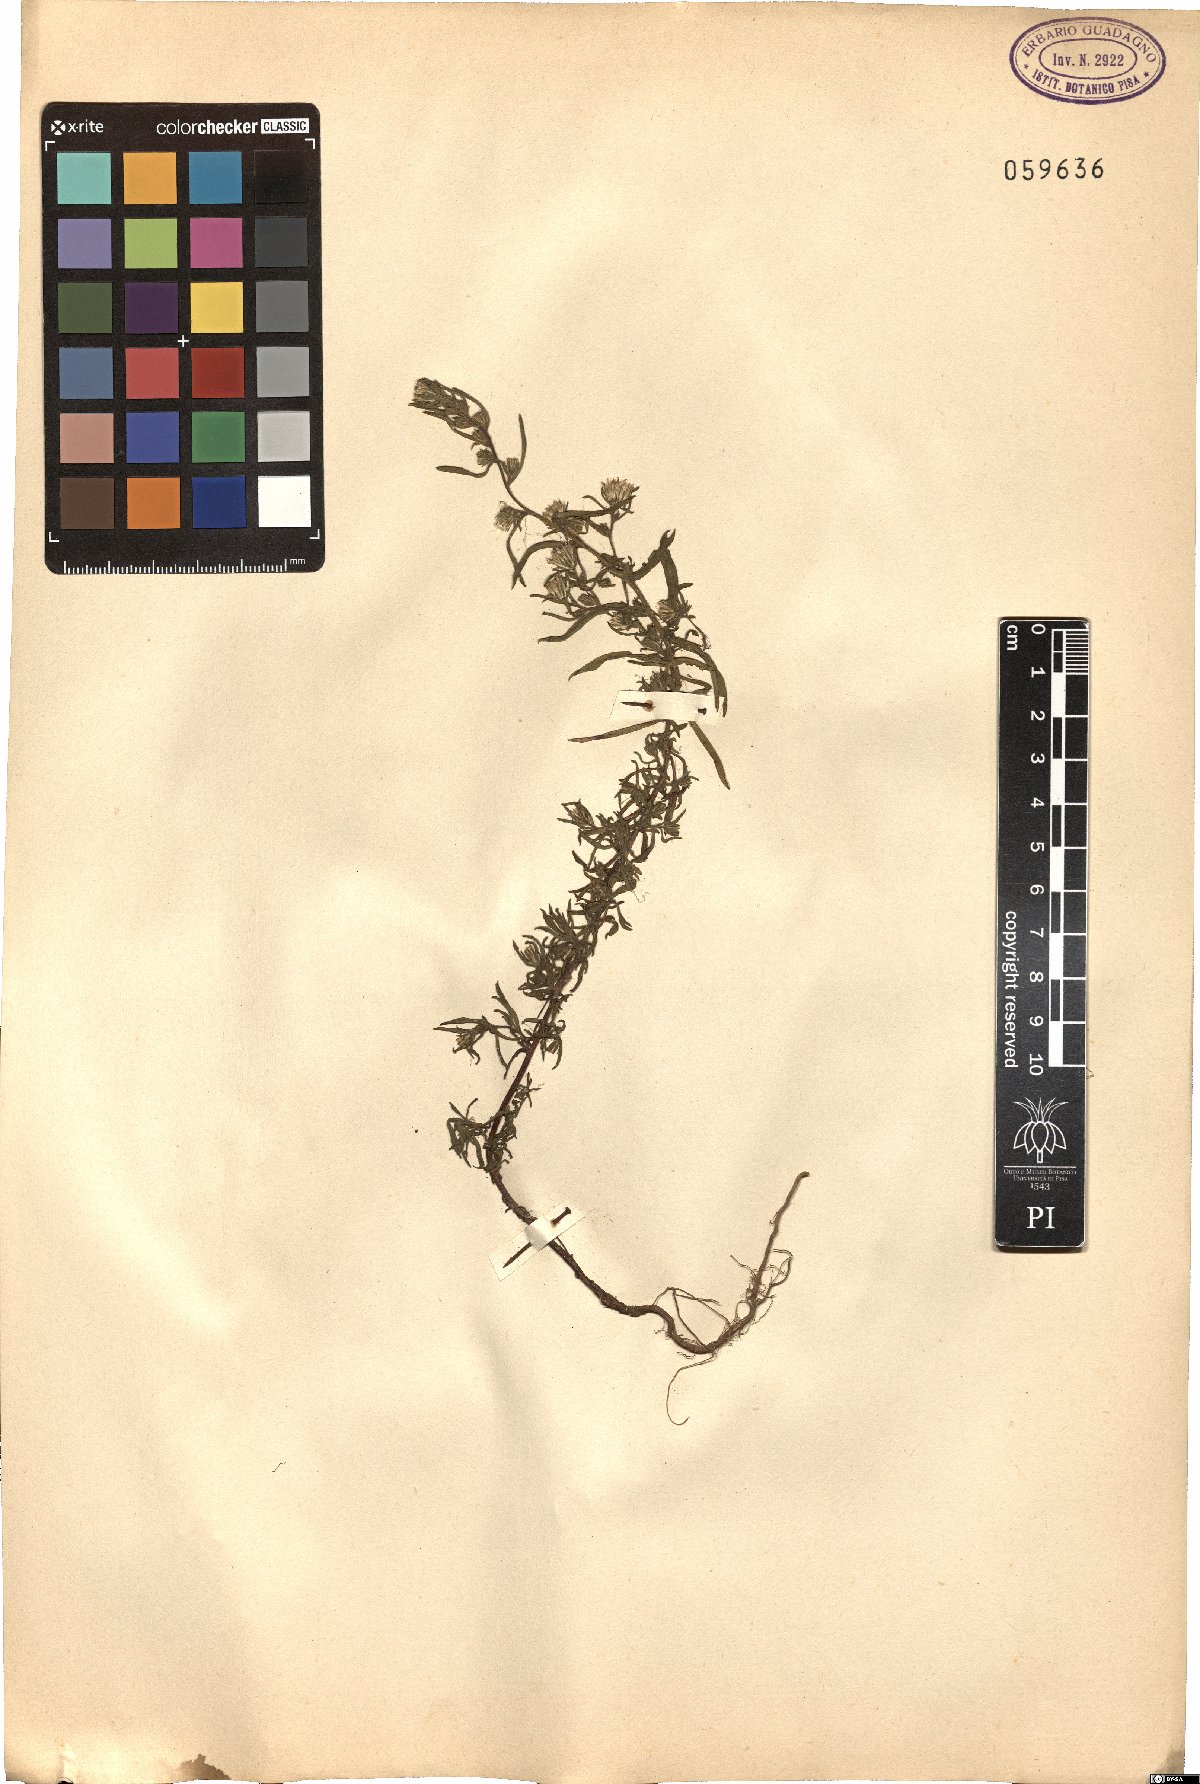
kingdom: Plantae
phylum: Tracheophyta
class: Magnoliopsida
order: Asterales
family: Asteraceae
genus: Erigeron
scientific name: Erigeron
